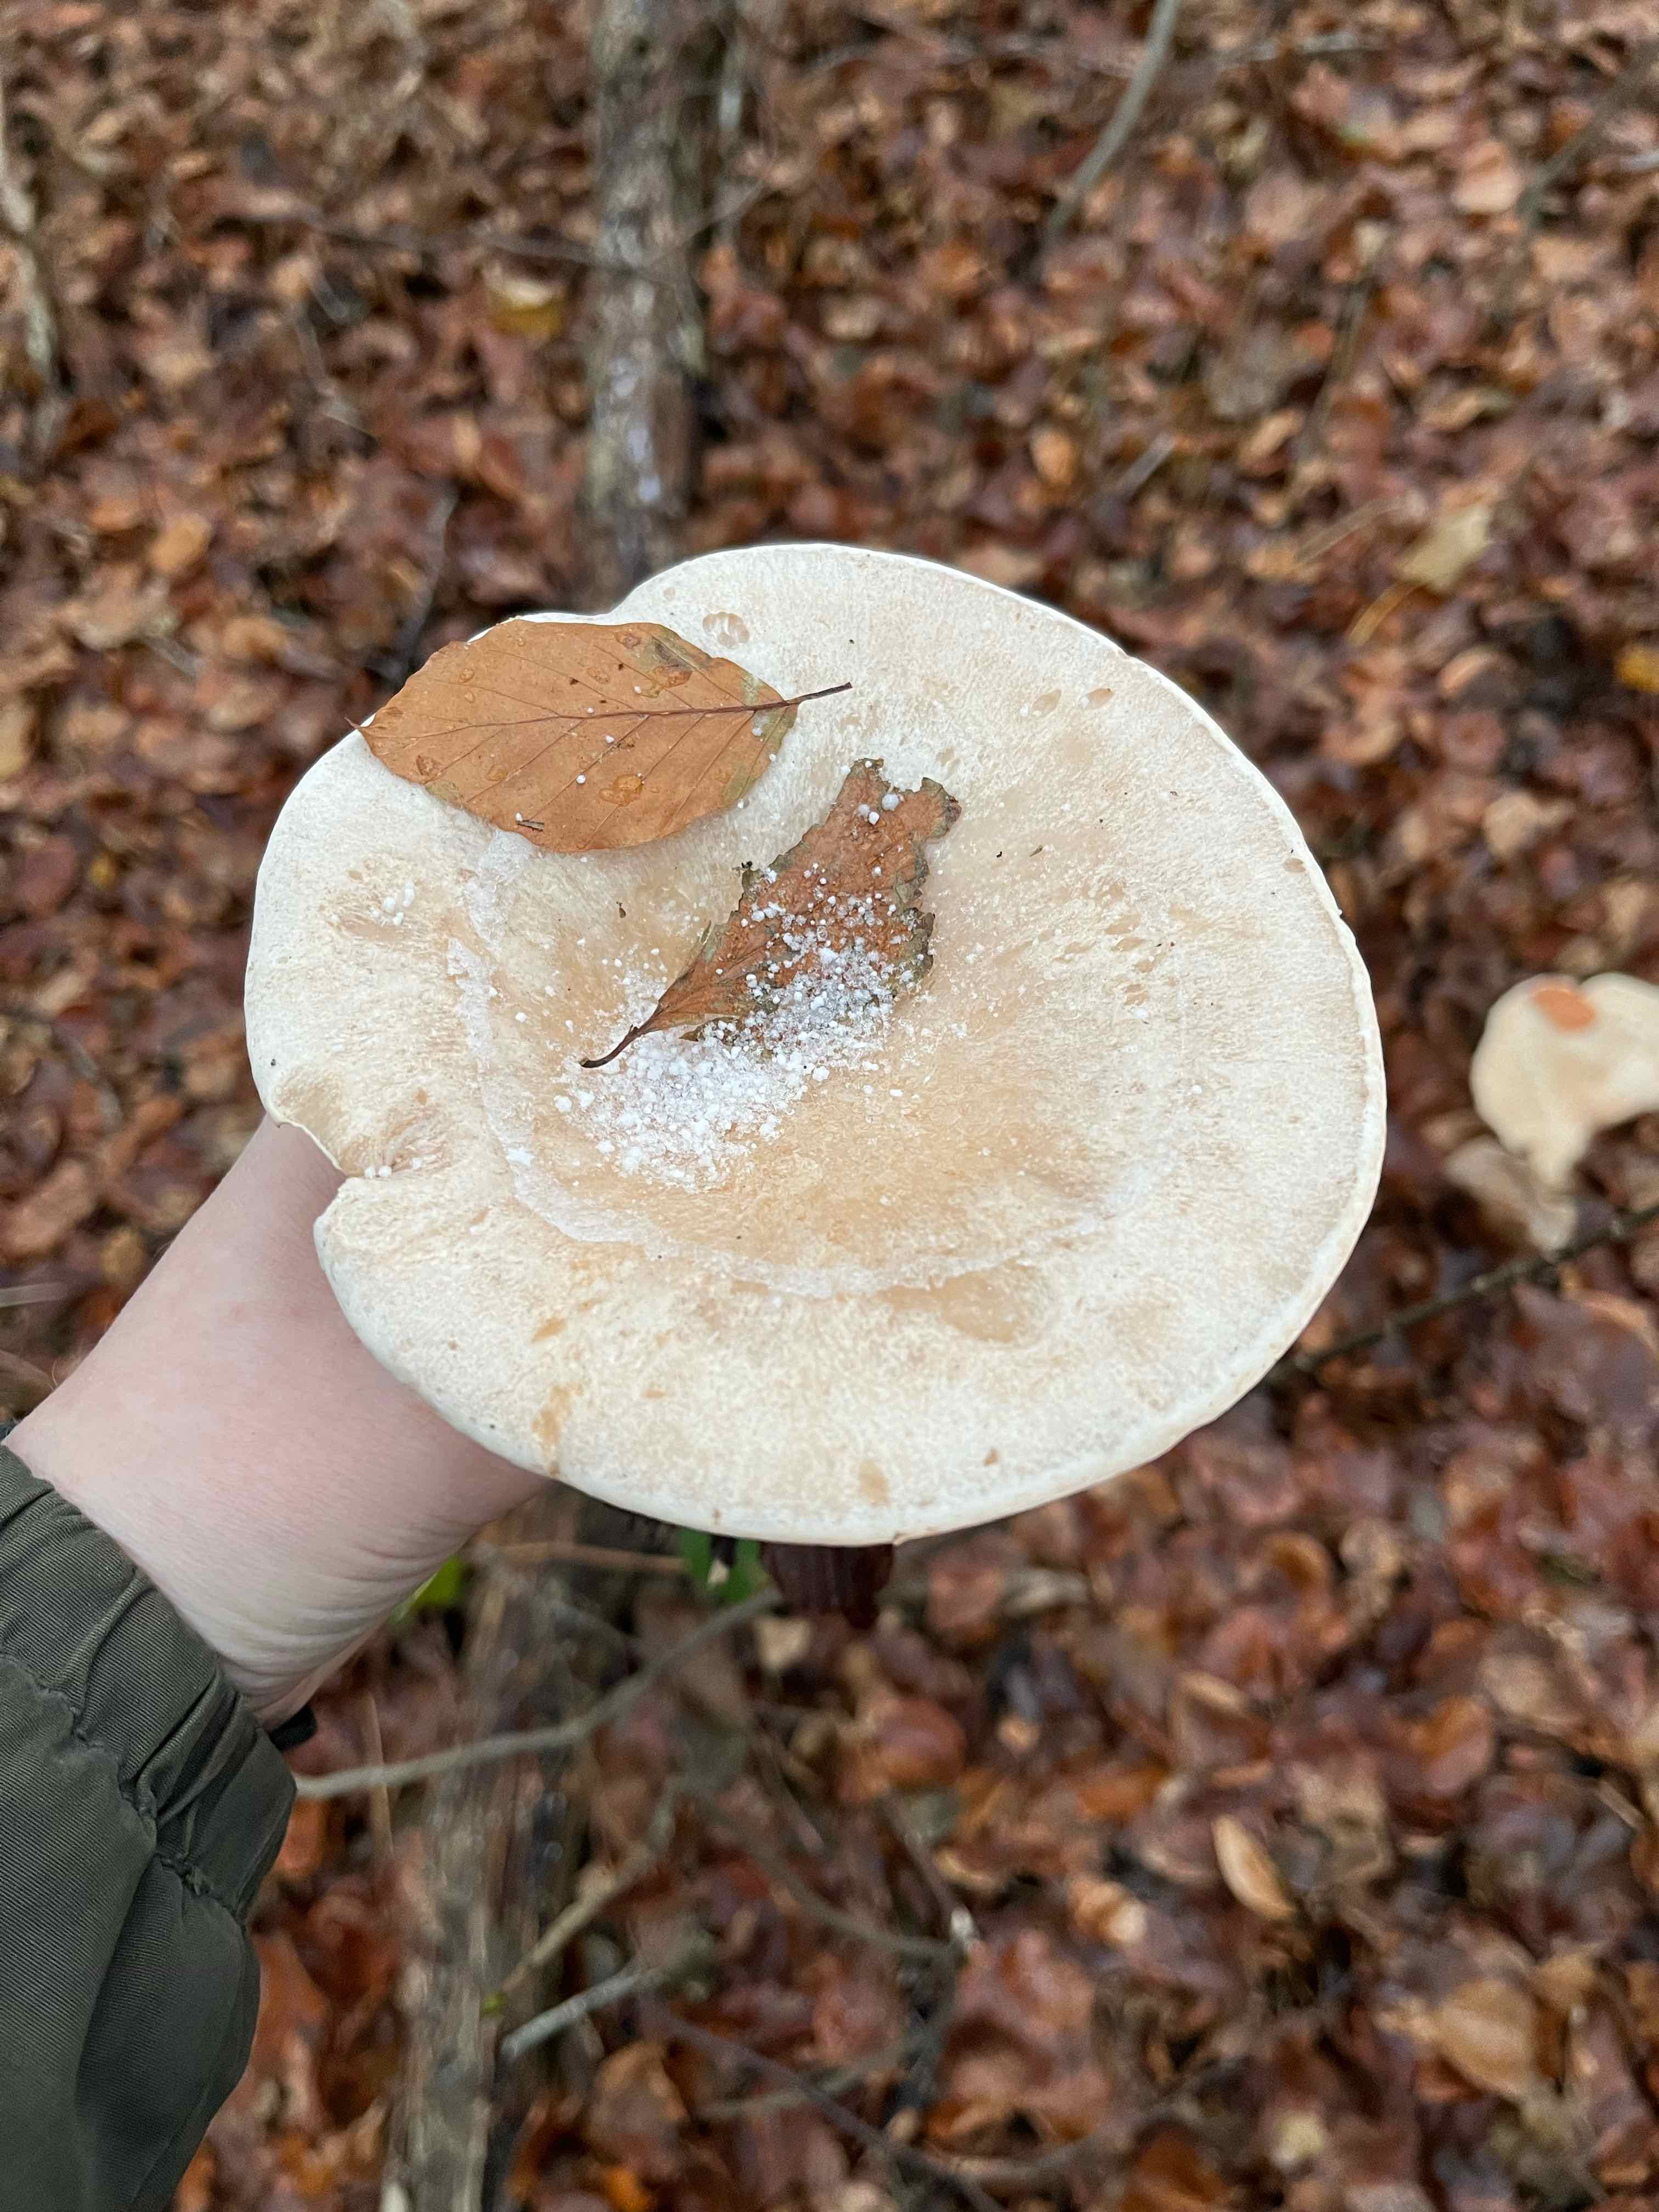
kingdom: Fungi
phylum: Basidiomycota
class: Agaricomycetes
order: Agaricales
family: Tricholomataceae
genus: Infundibulicybe
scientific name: Infundibulicybe geotropa
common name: stor tragthat
